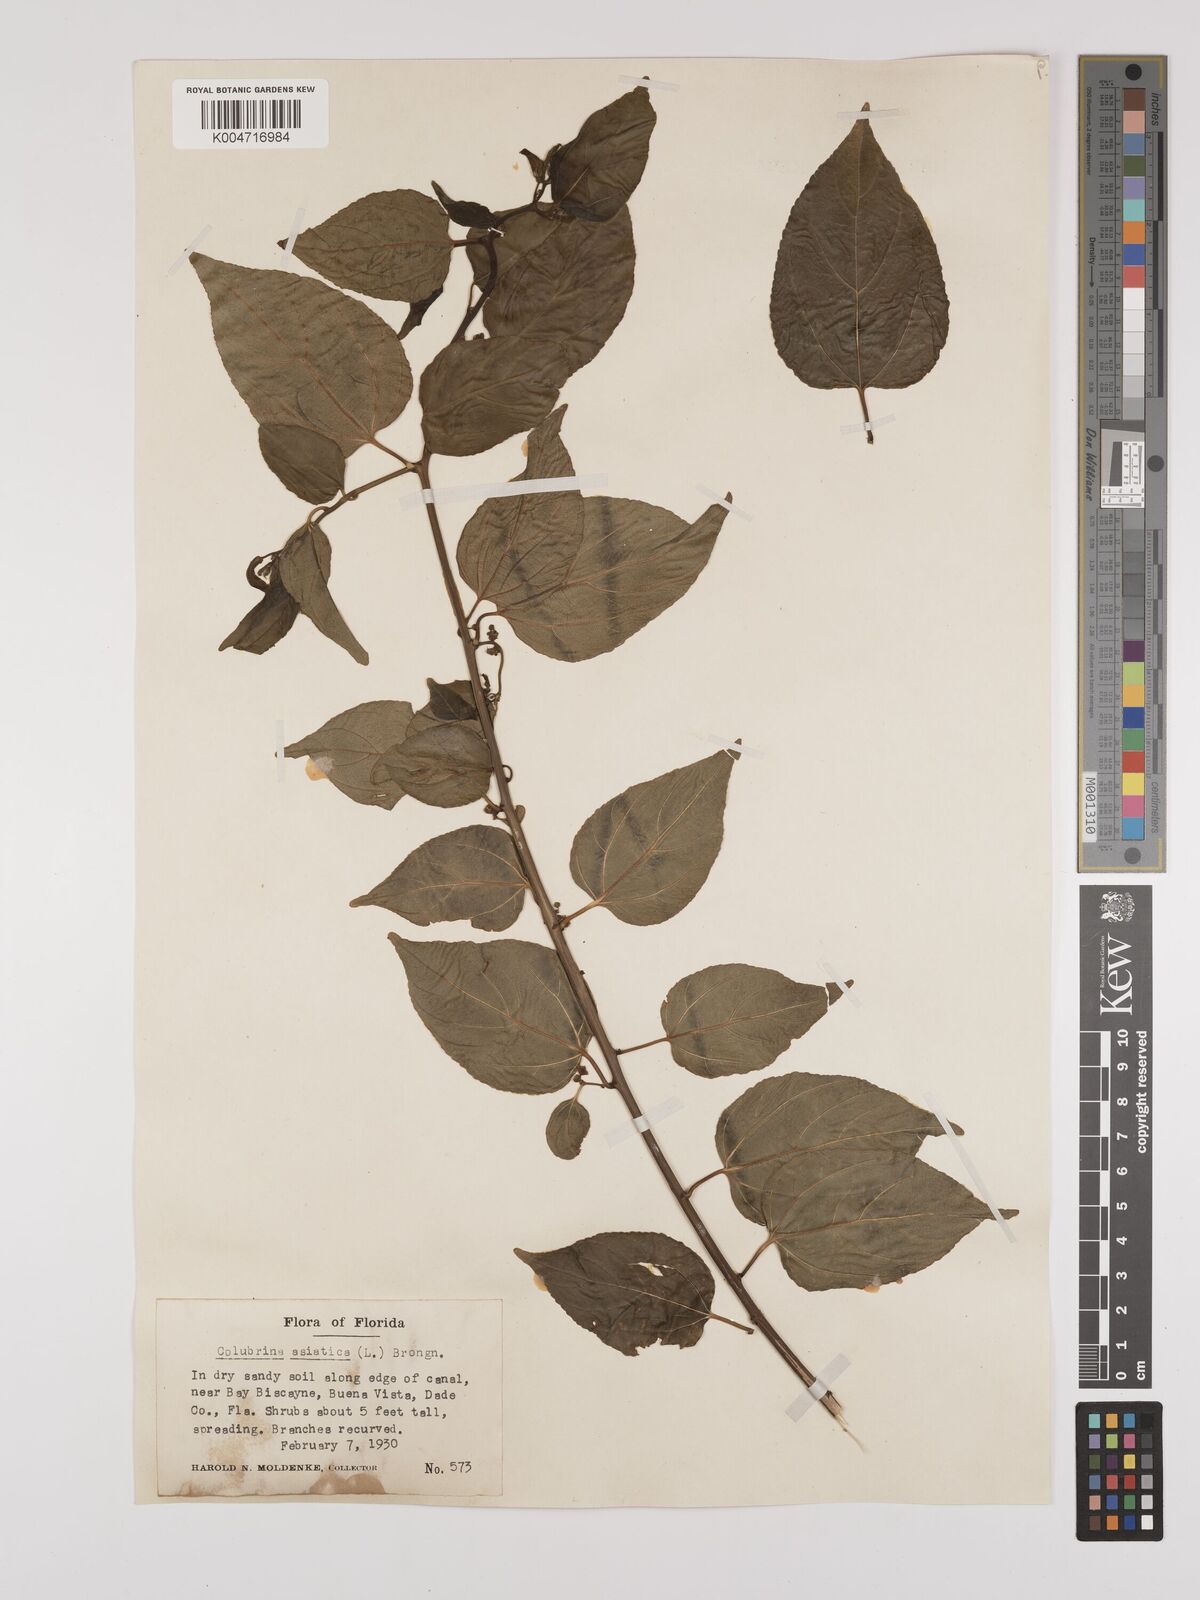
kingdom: Plantae
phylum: Tracheophyta
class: Magnoliopsida
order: Rosales
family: Rhamnaceae
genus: Colubrina
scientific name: Colubrina asiatica
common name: Asian nakedwood
